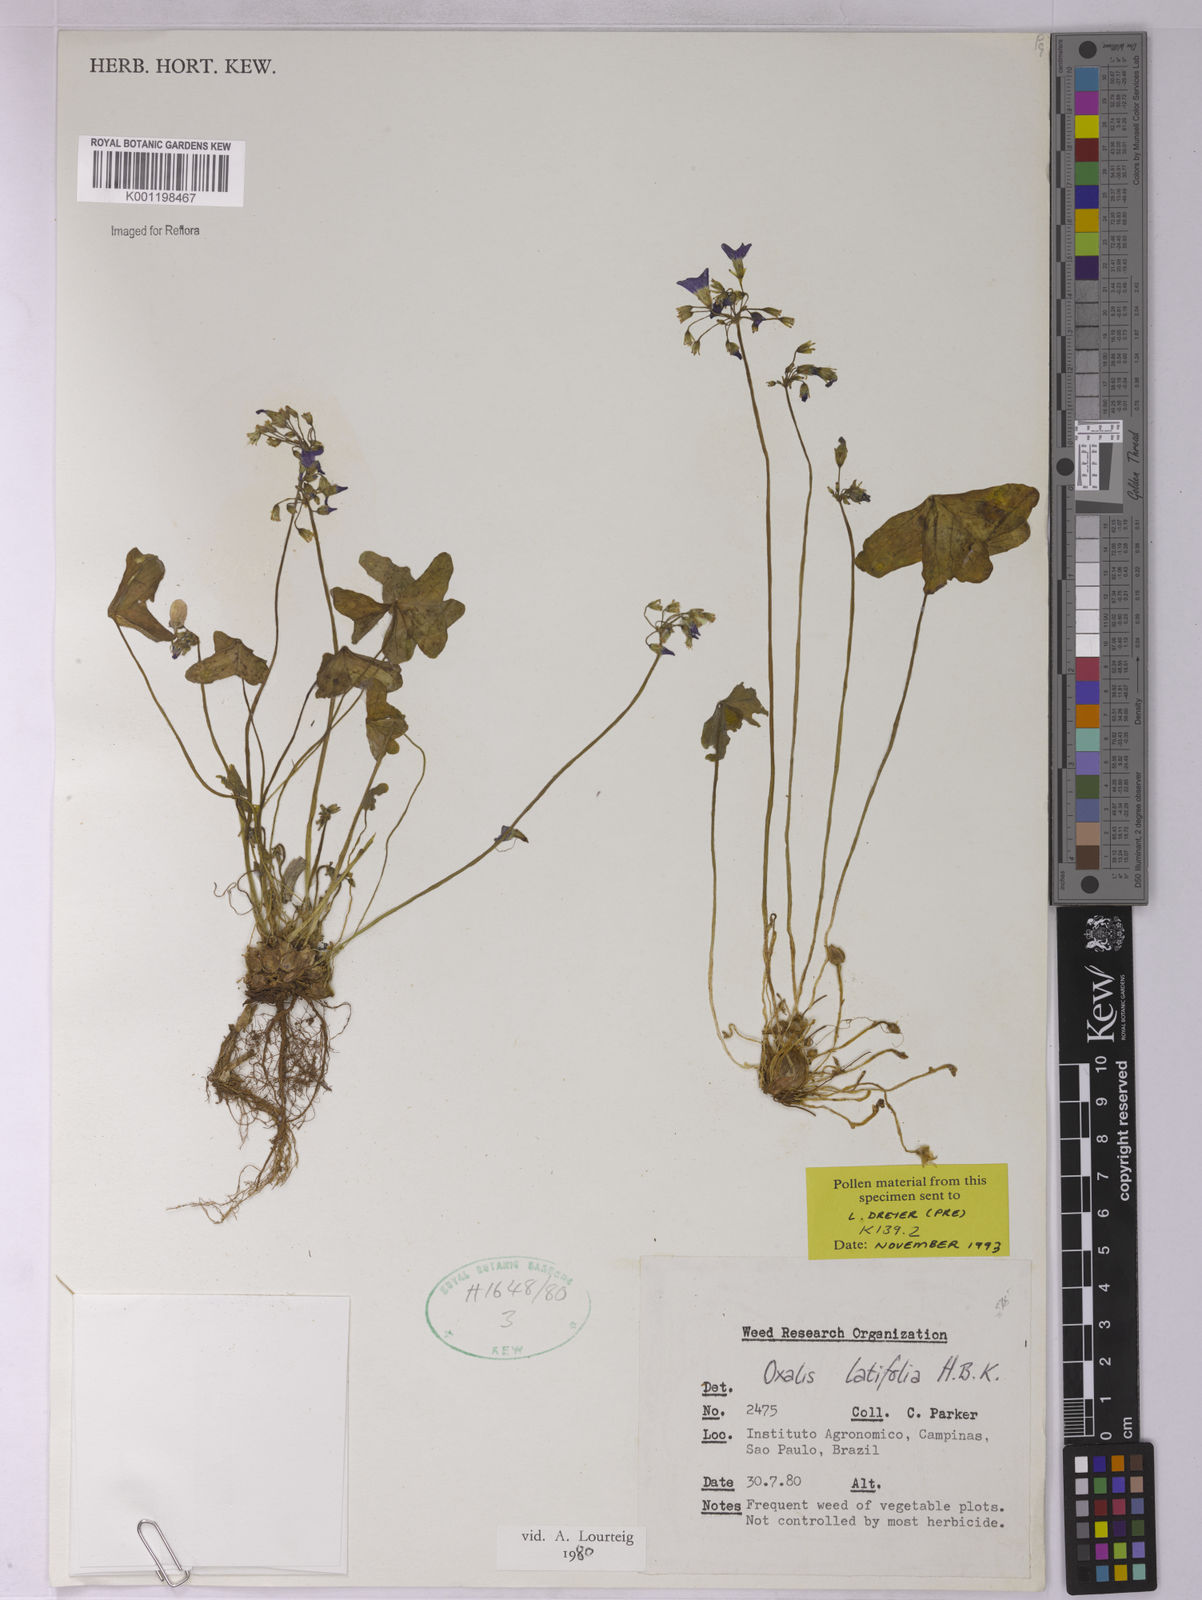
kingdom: Plantae
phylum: Tracheophyta
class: Magnoliopsida
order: Oxalidales
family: Oxalidaceae
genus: Oxalis
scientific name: Oxalis latifolia
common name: Garden pink-sorrel
